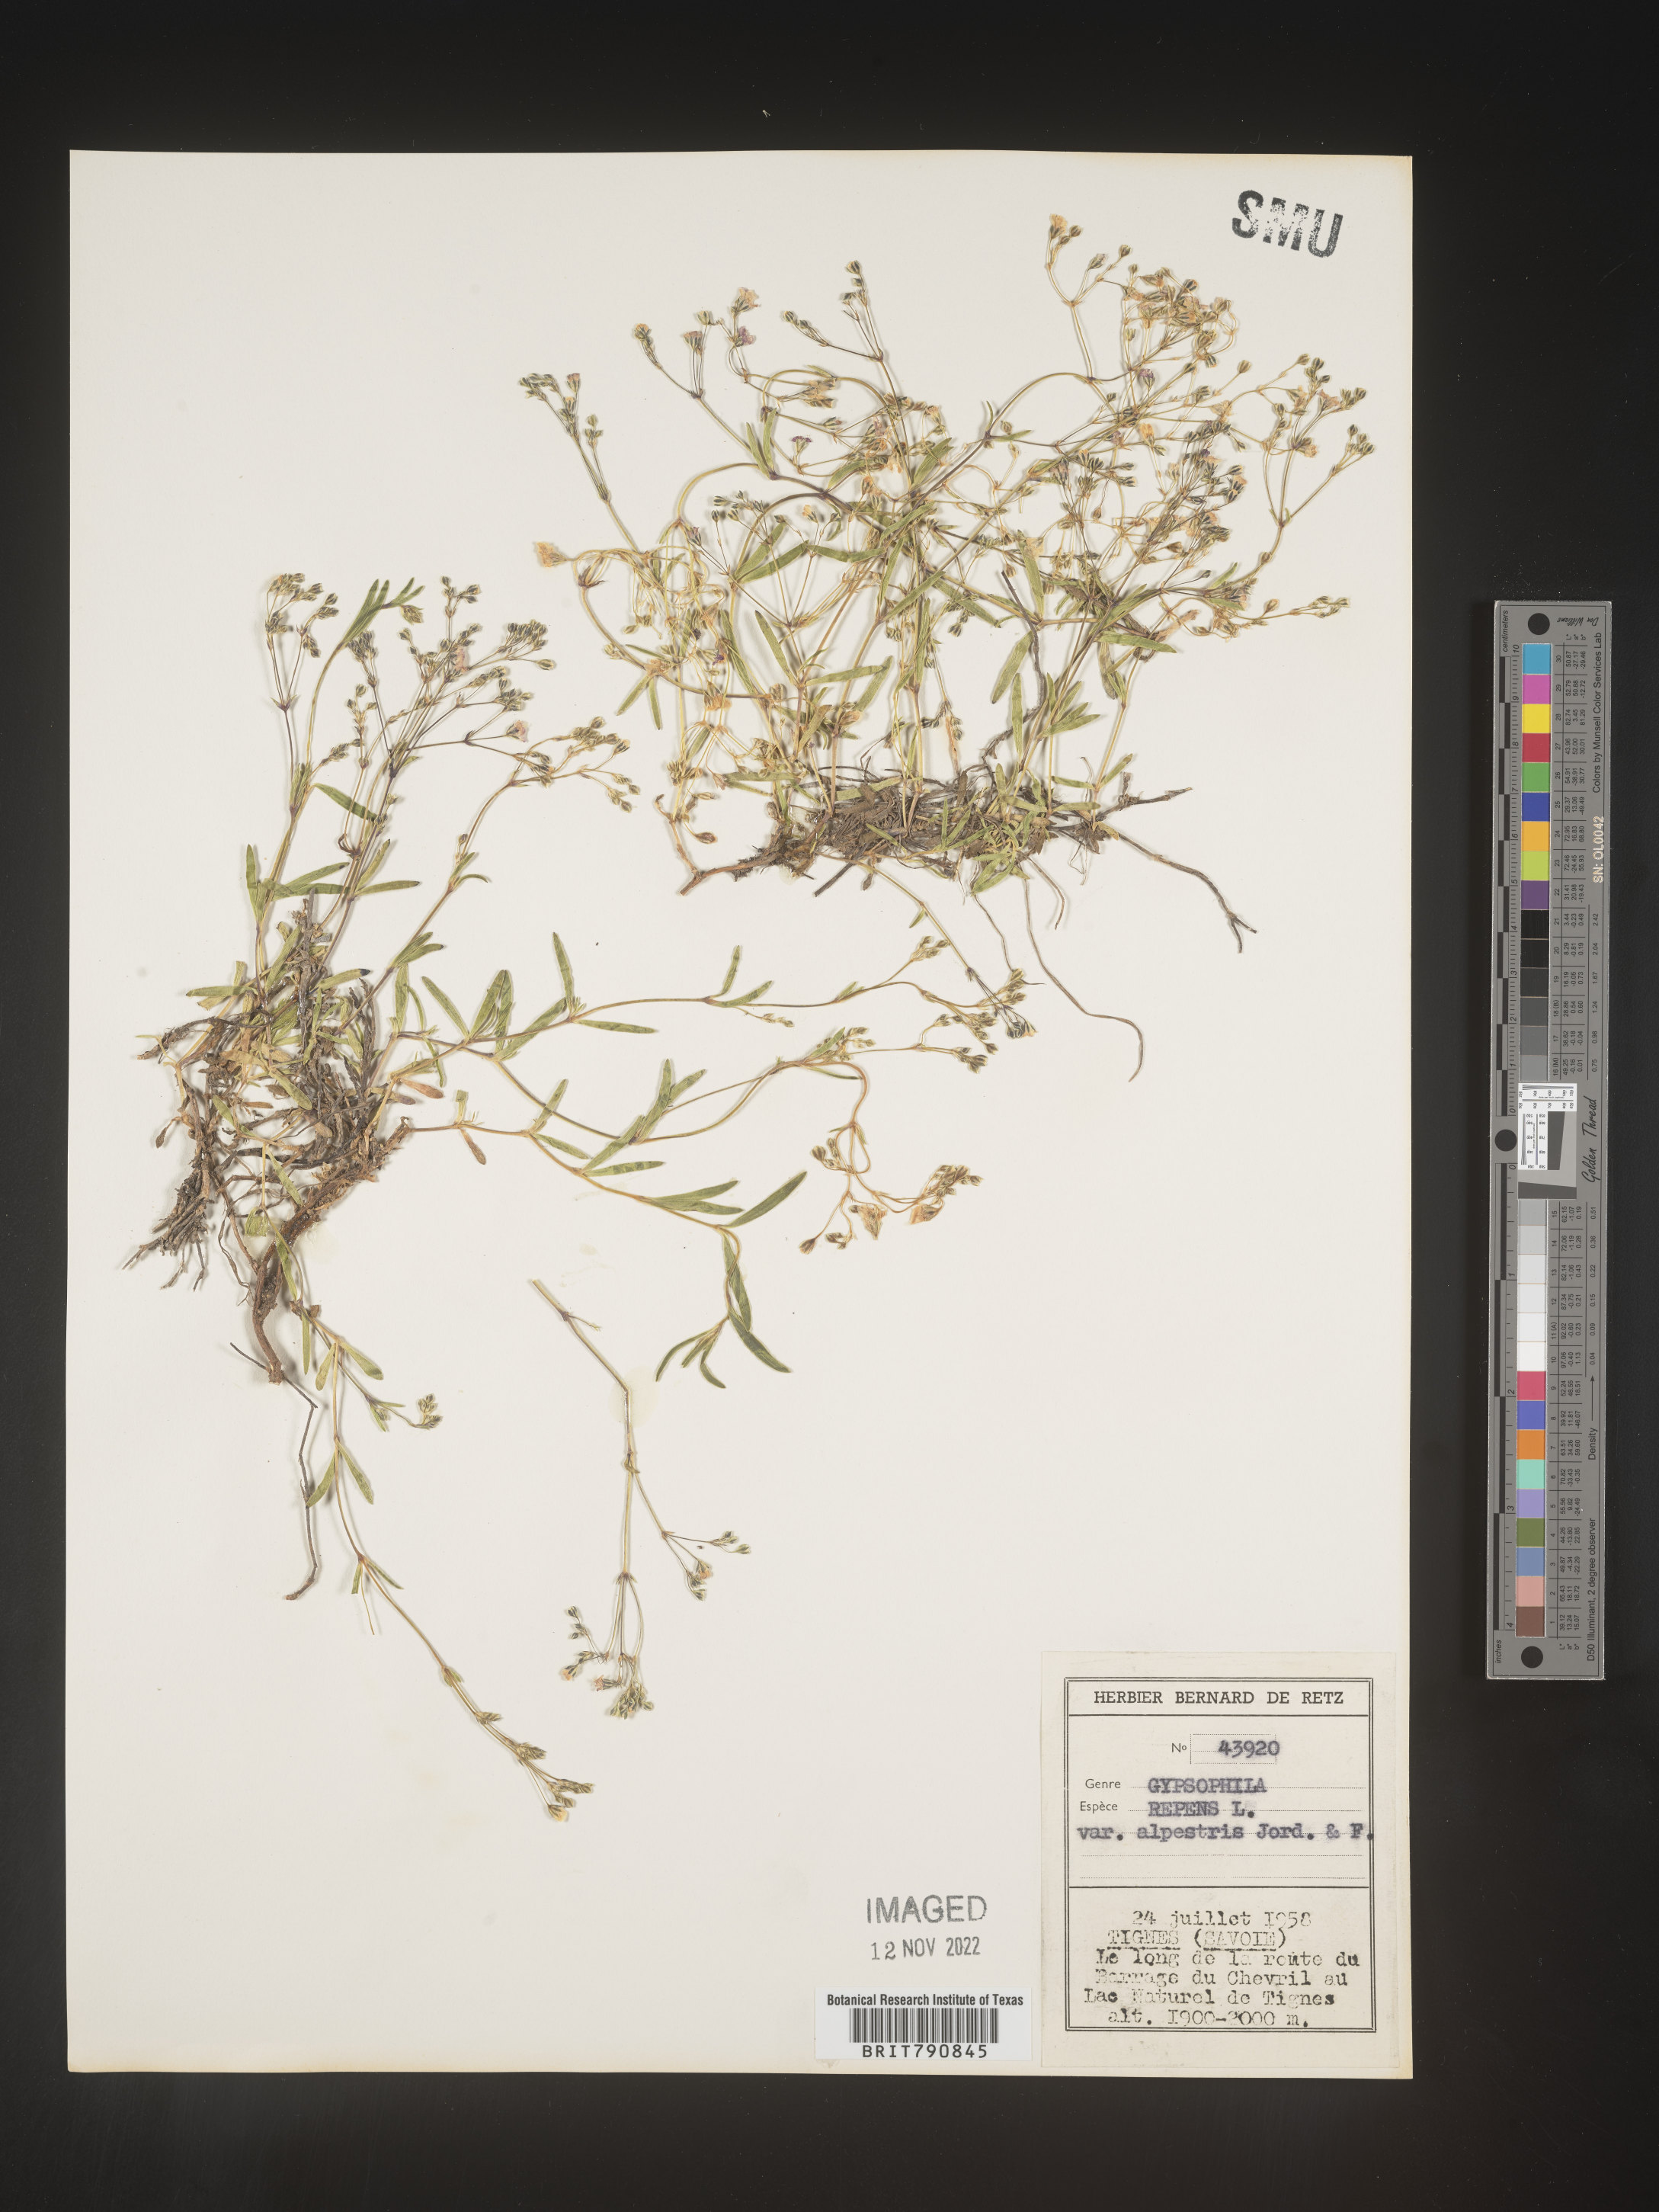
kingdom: Plantae
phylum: Tracheophyta
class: Magnoliopsida
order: Caryophyllales
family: Caryophyllaceae
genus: Gypsophila
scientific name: Gypsophila
